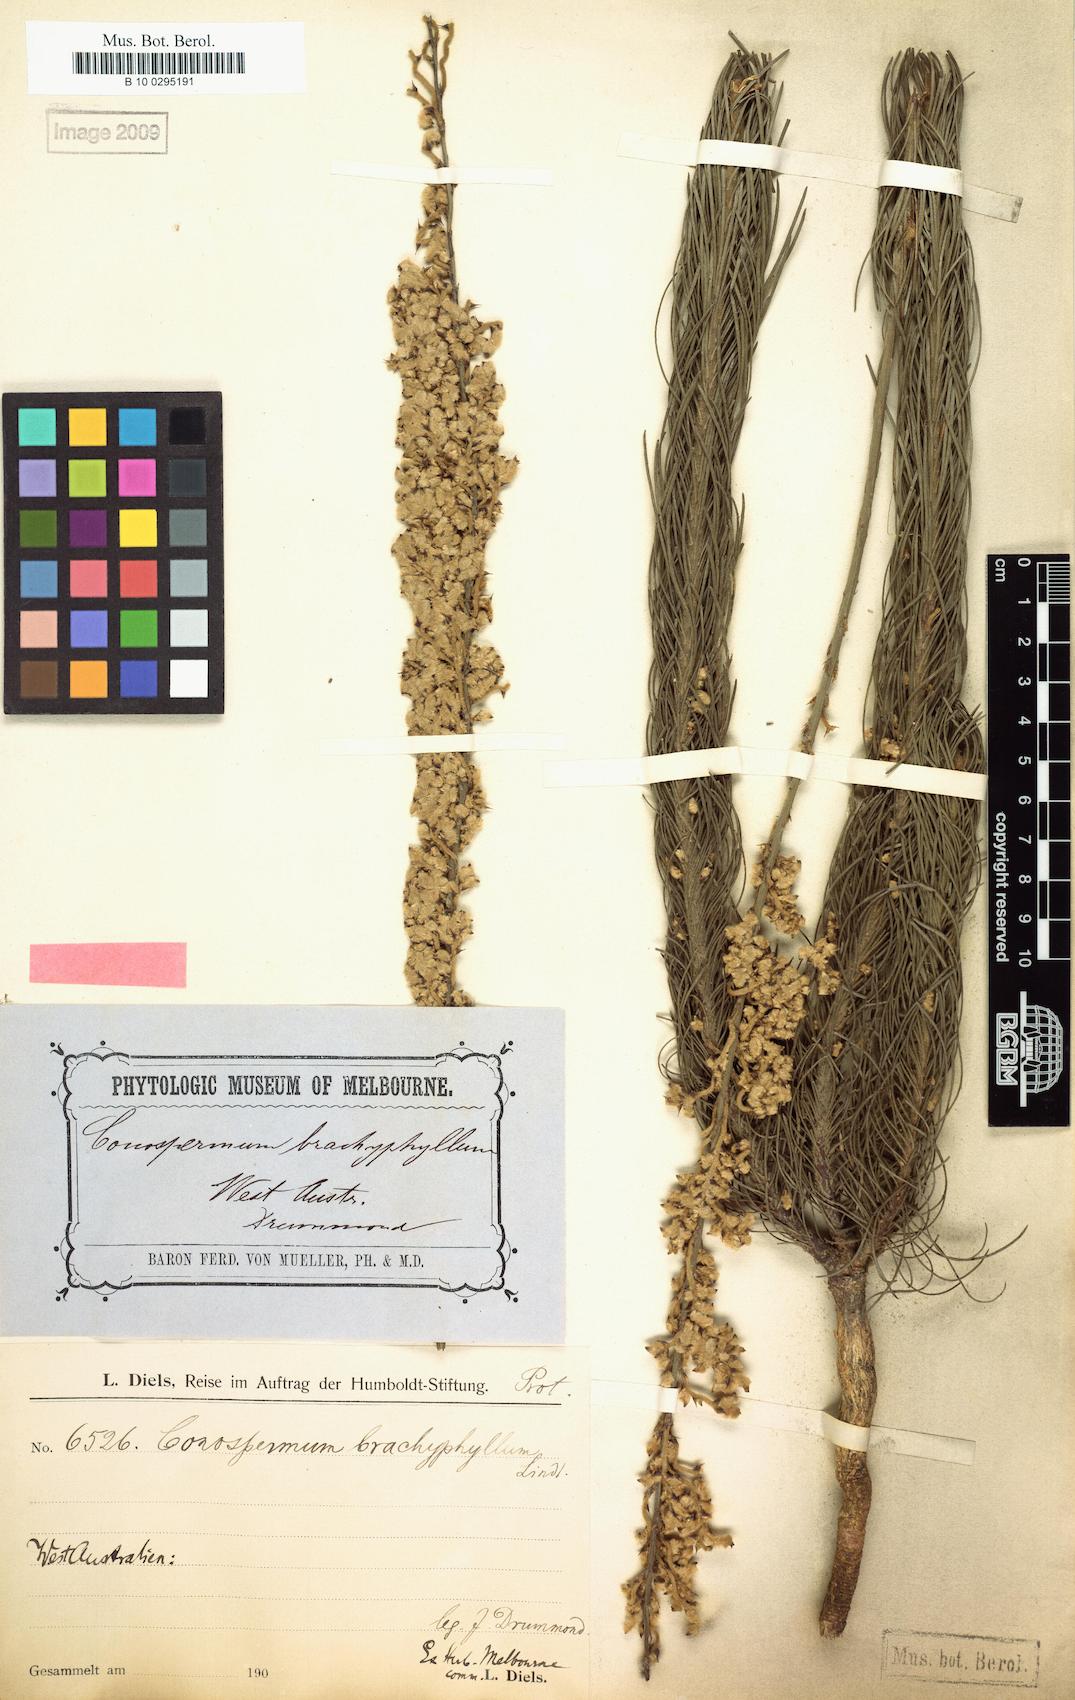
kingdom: Plantae
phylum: Tracheophyta
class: Magnoliopsida
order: Proteales
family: Proteaceae
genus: Conospermum
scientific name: Conospermum brachyphyllum
